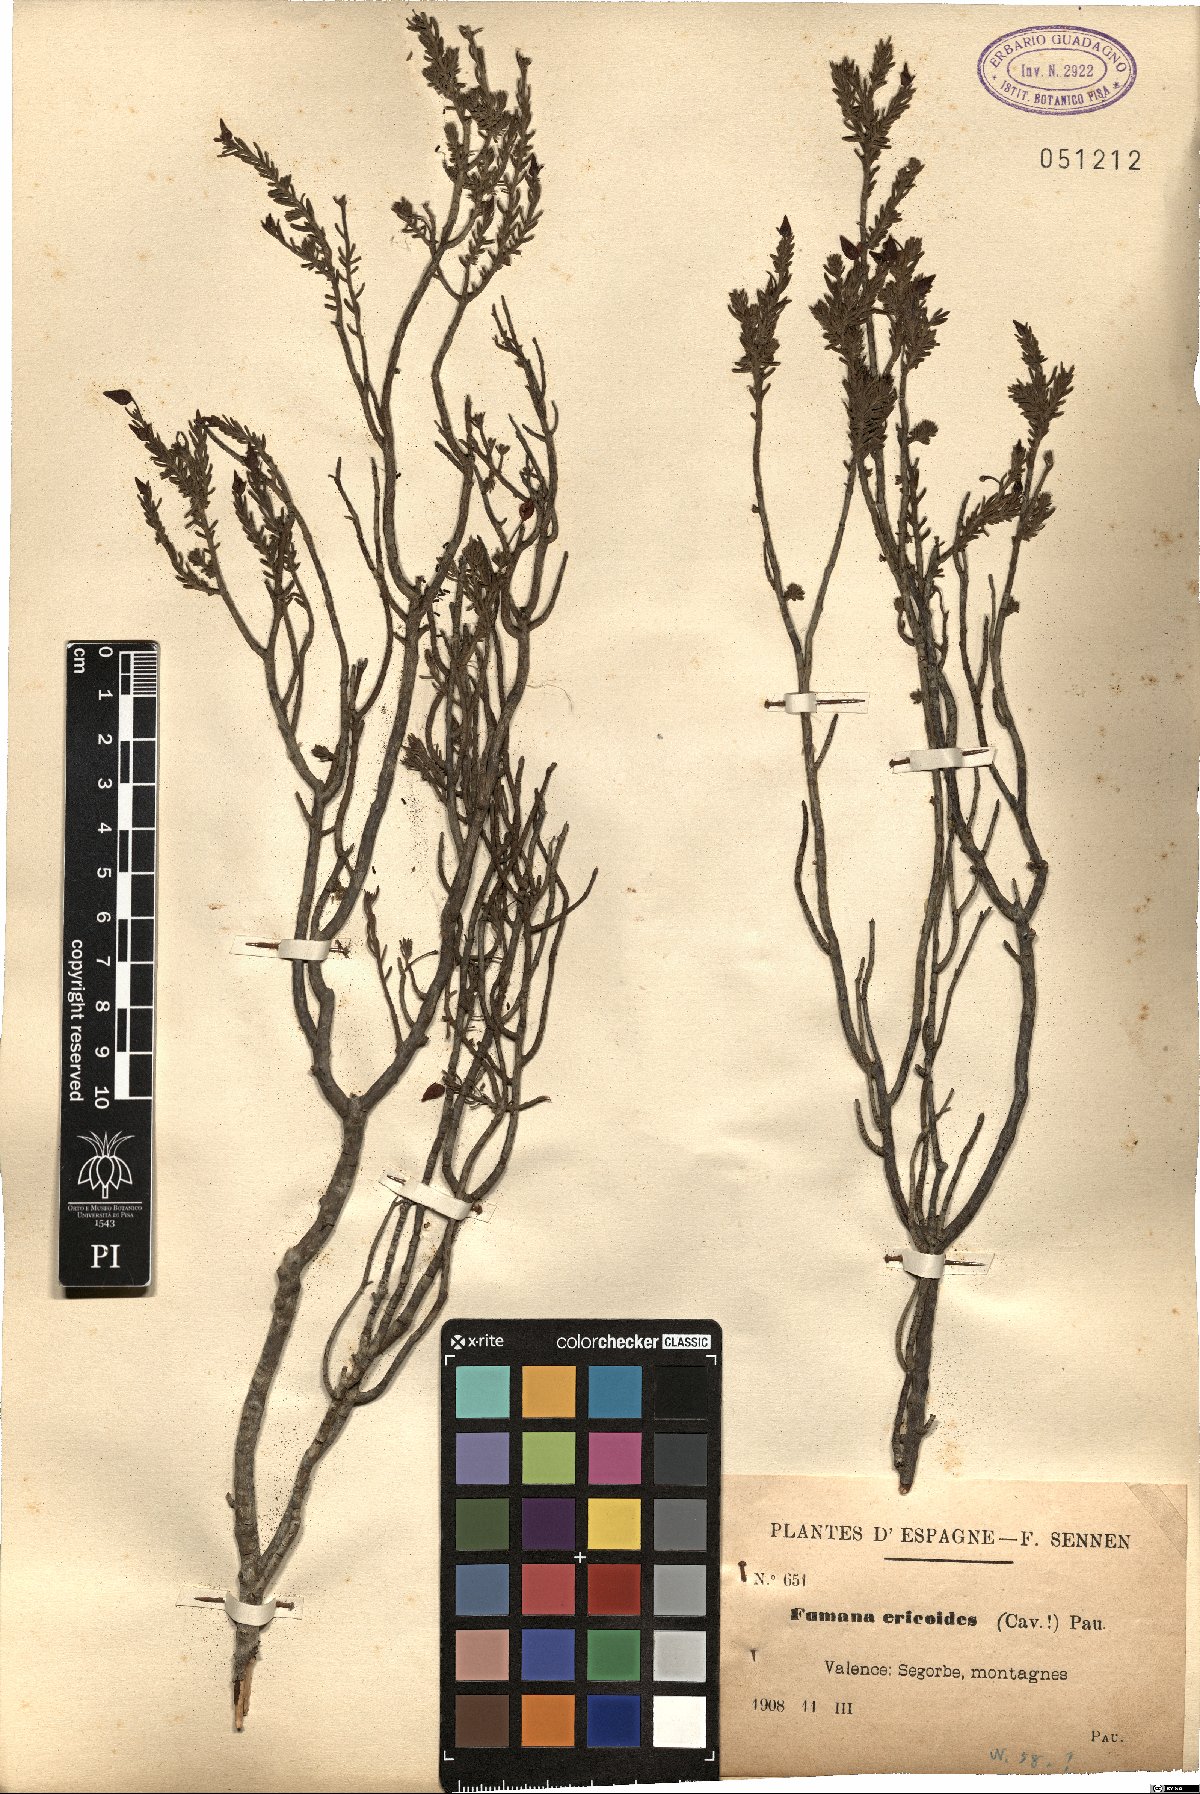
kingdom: Plantae
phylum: Tracheophyta
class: Magnoliopsida
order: Malvales
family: Cistaceae
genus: Fumana
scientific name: Fumana ericoides
